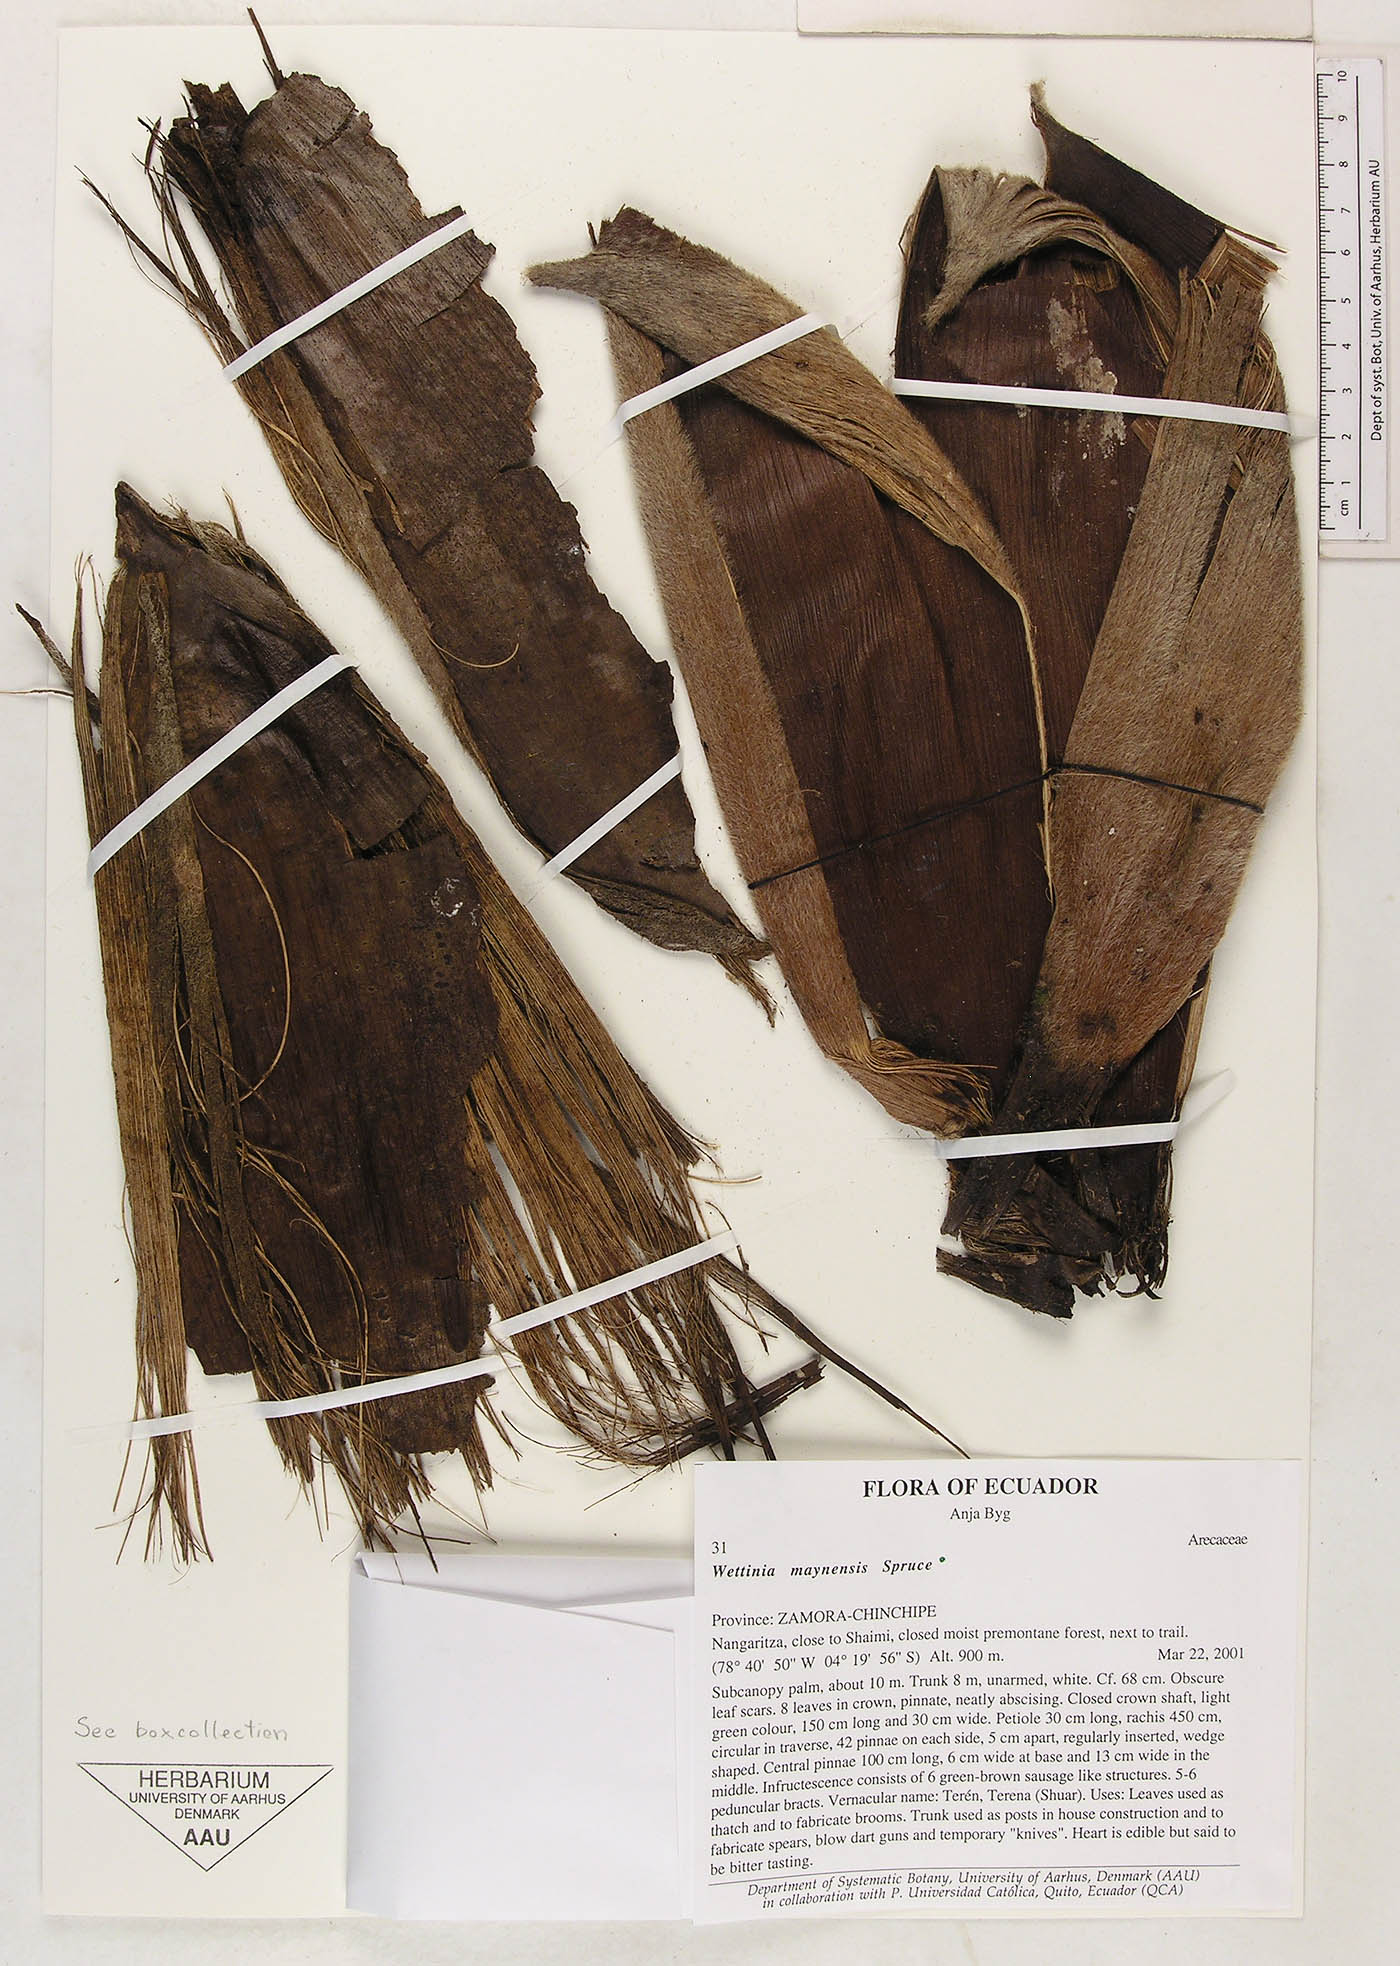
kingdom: Plantae
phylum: Tracheophyta
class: Liliopsida
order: Arecales
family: Arecaceae
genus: Wettinia
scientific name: Wettinia maynensis
